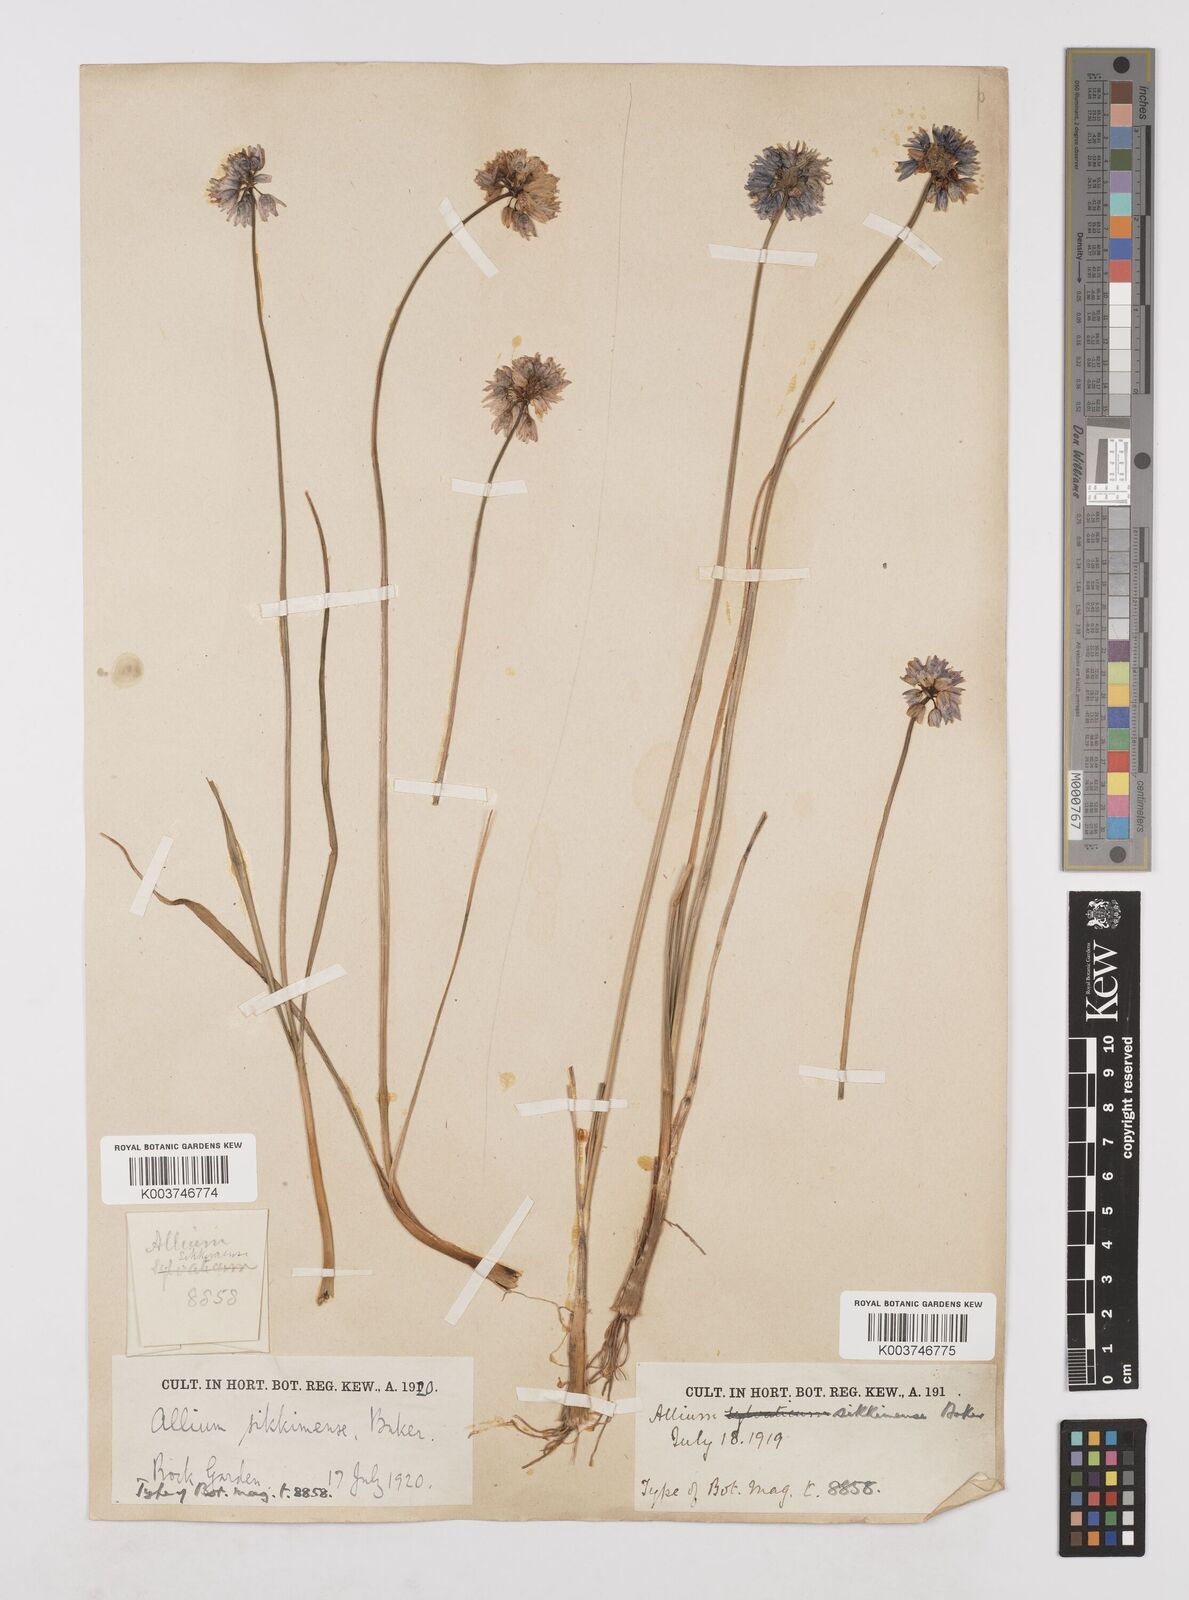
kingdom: Plantae
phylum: Tracheophyta
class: Liliopsida
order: Asparagales
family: Amaryllidaceae
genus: Allium
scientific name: Allium sikkimense
